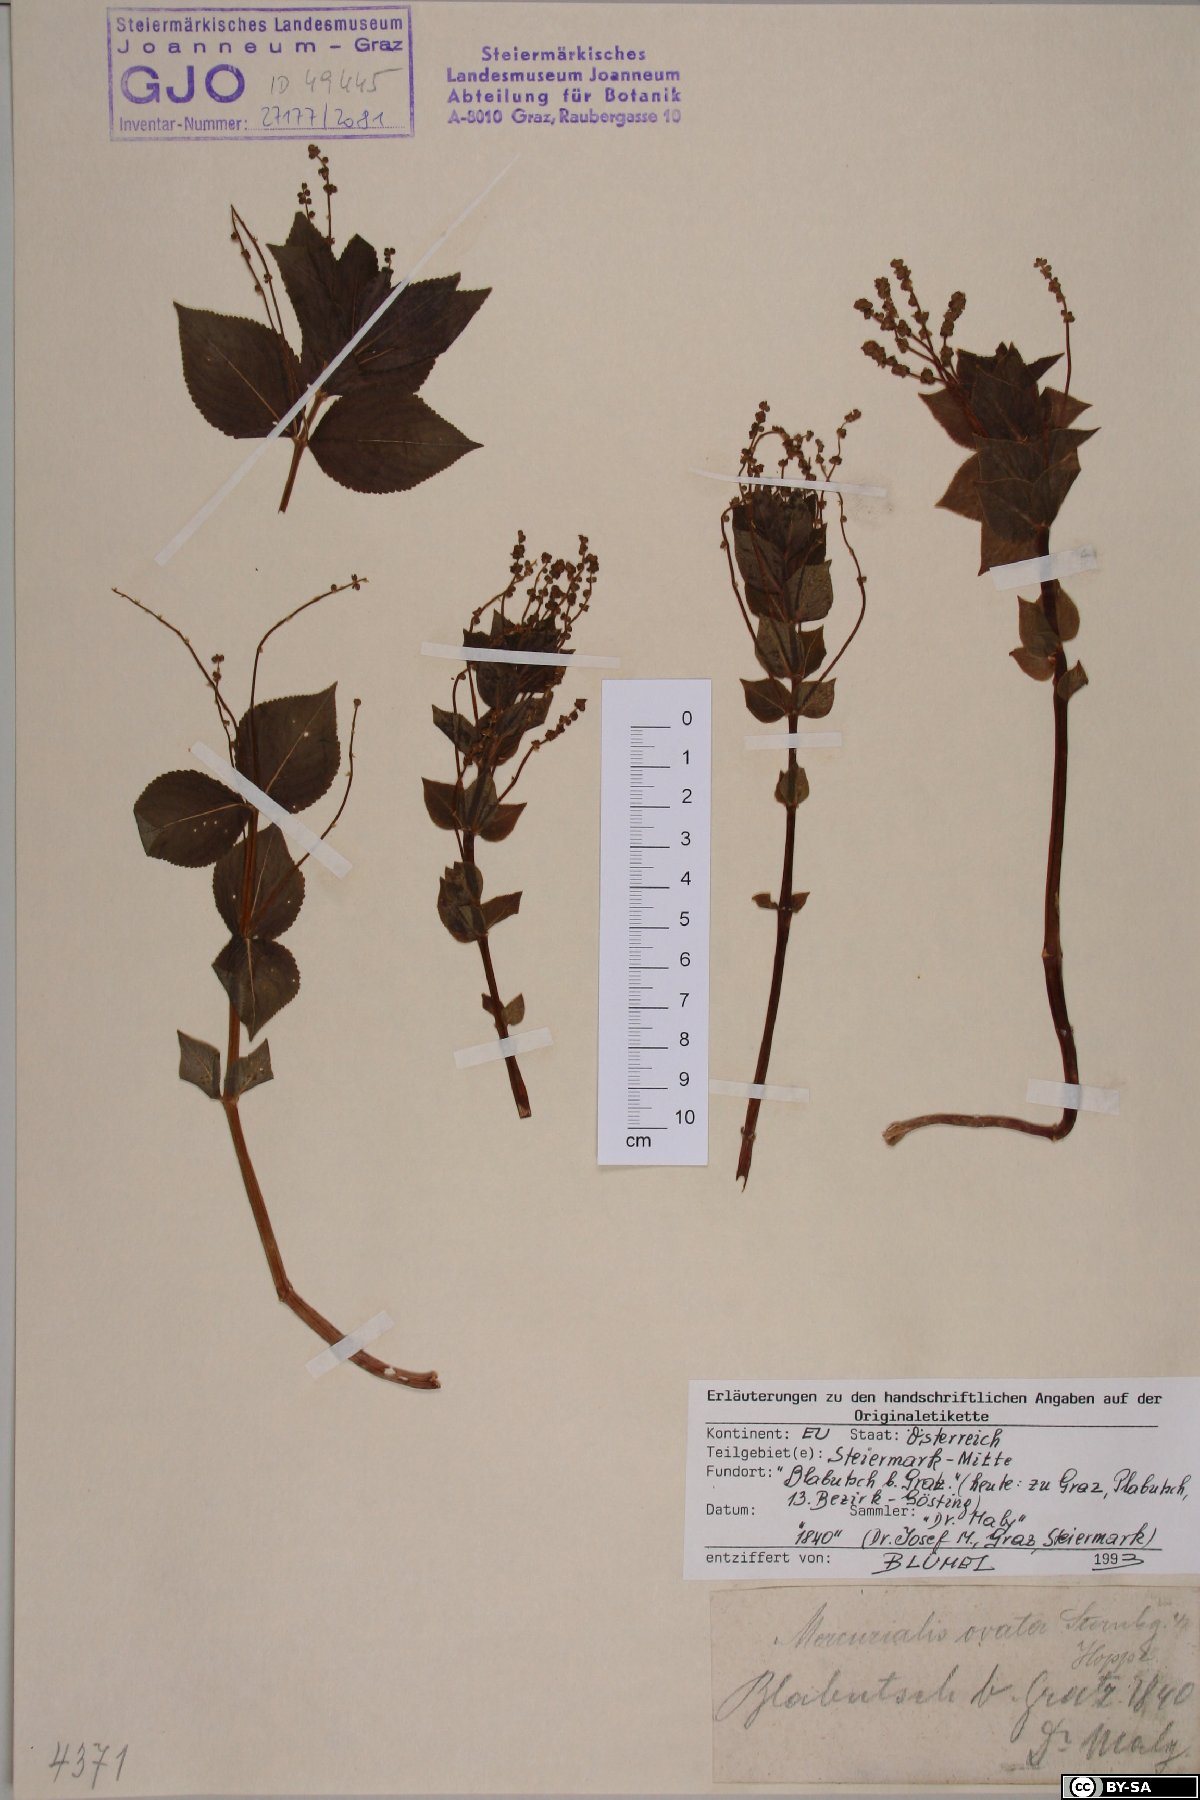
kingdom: Plantae
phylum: Tracheophyta
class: Magnoliopsida
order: Malpighiales
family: Euphorbiaceae
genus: Mercurialis
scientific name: Mercurialis ovata
